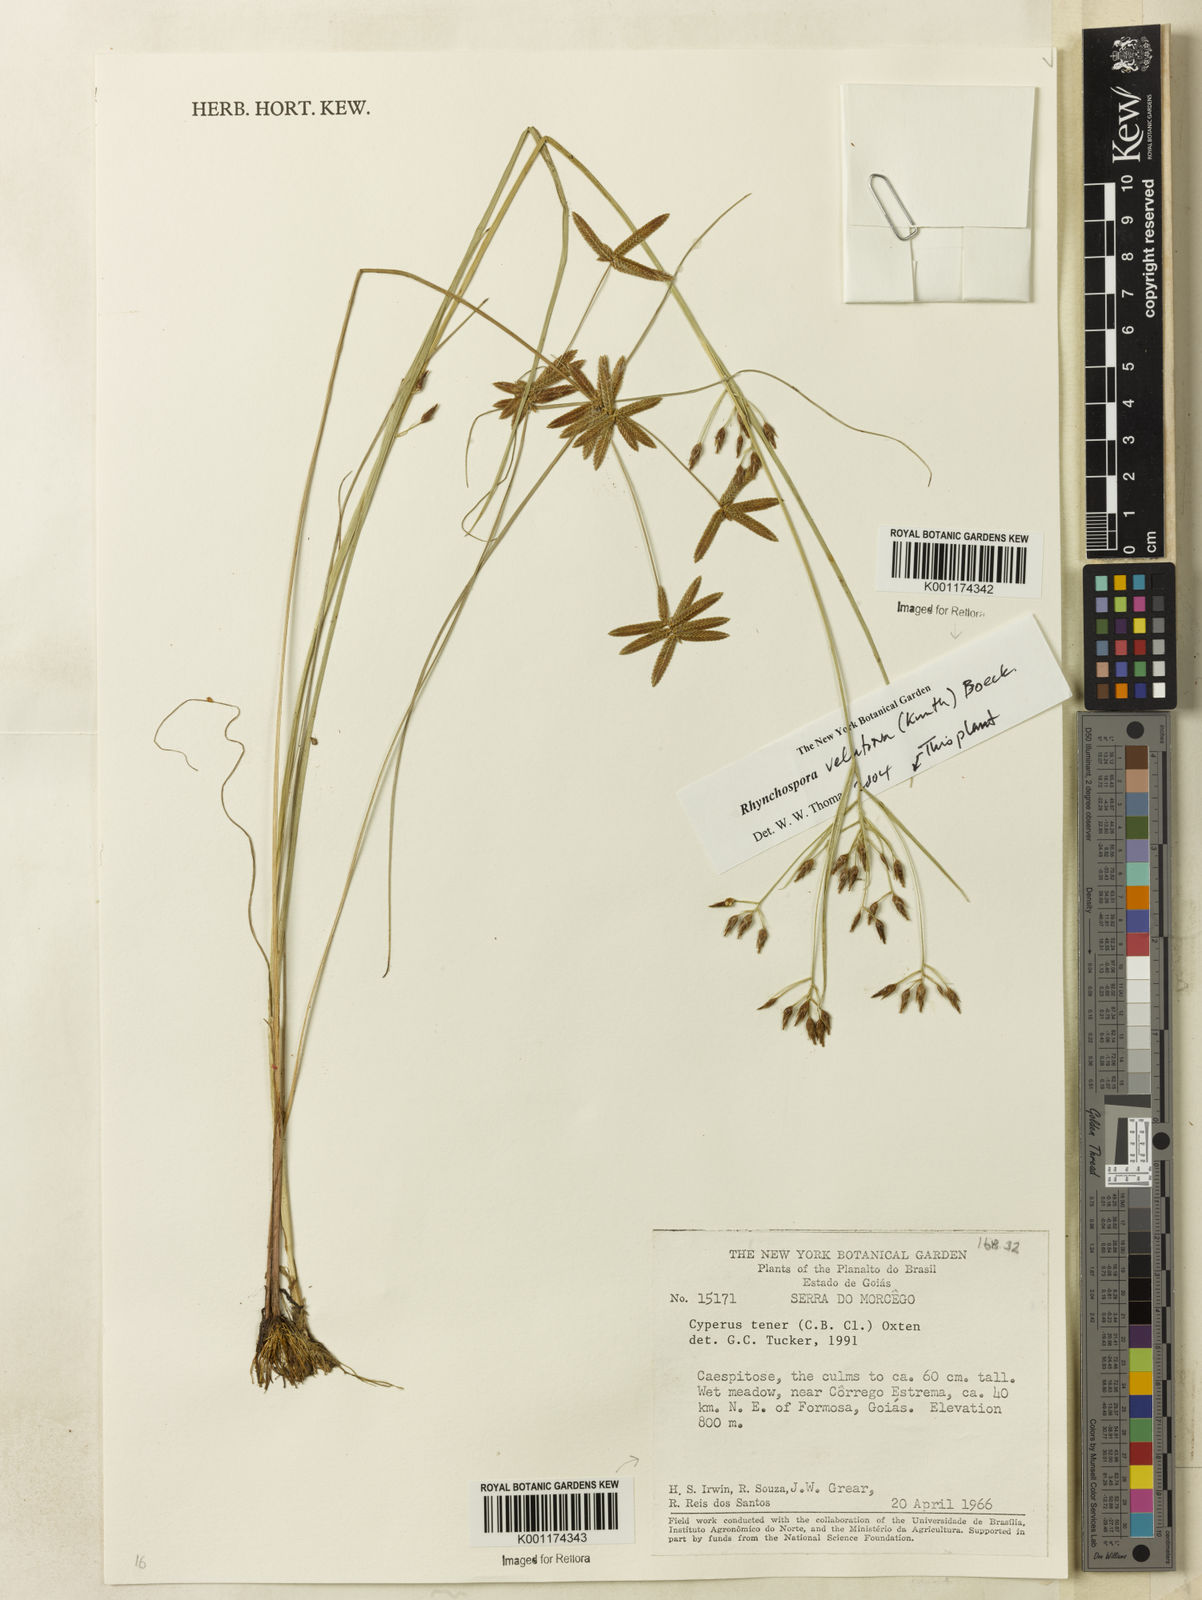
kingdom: Plantae
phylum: Tracheophyta
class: Liliopsida
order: Poales
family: Cyperaceae
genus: Cyperus
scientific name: Cyperus flavescens
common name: Yellow galingale
